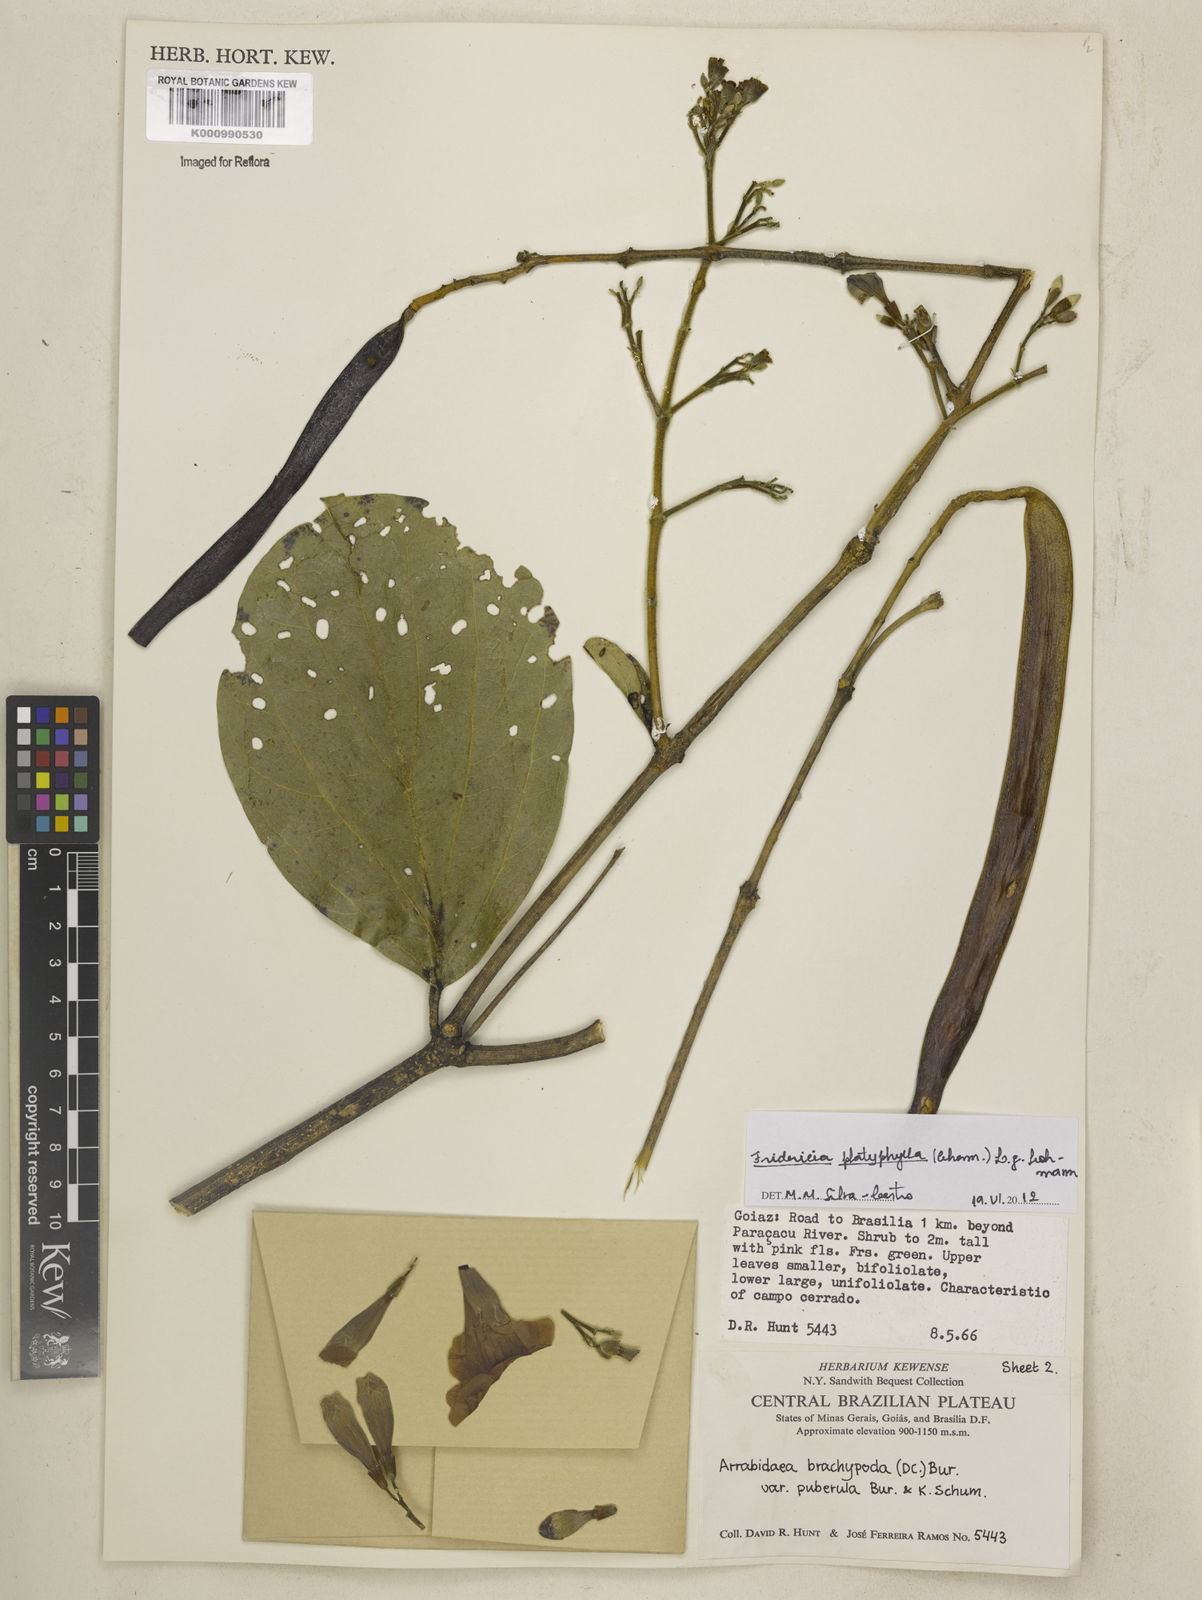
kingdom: Plantae
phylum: Tracheophyta
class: Magnoliopsida
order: Lamiales
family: Bignoniaceae
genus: Fridericia
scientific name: Fridericia platyphylla
